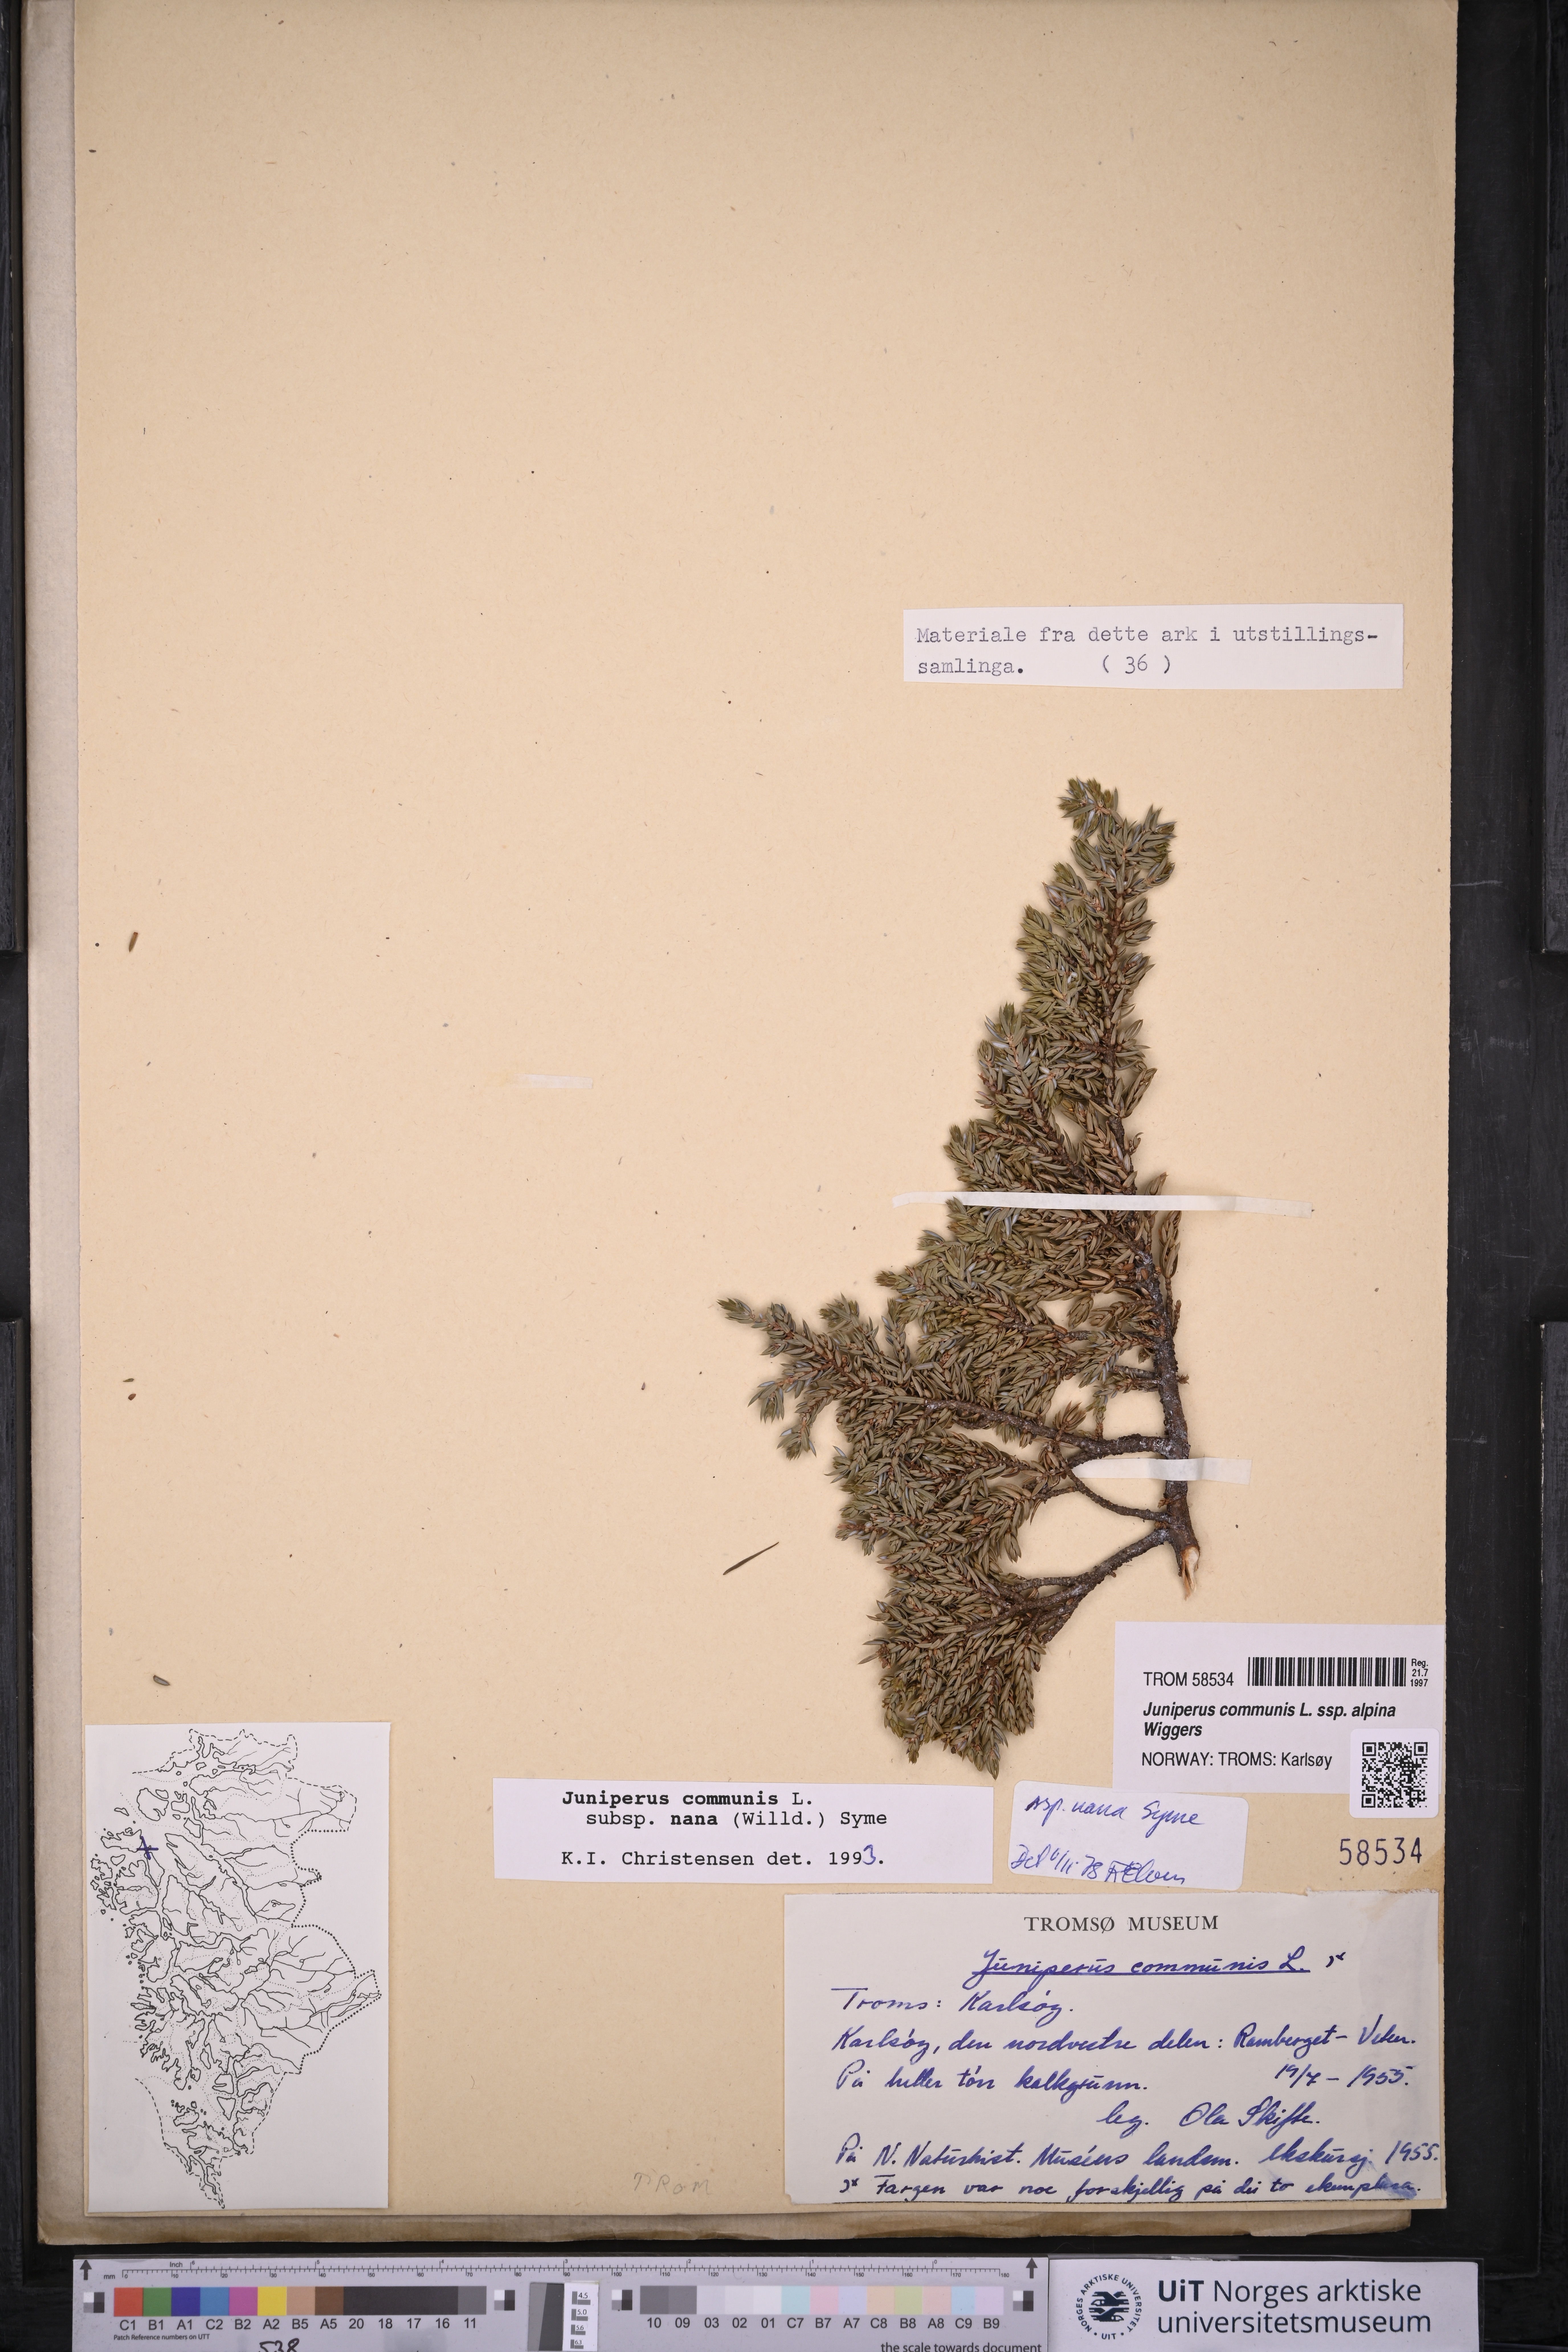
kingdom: Plantae
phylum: Tracheophyta
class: Pinopsida
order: Pinales
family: Cupressaceae
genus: Juniperus
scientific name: Juniperus communis
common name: Common juniper
